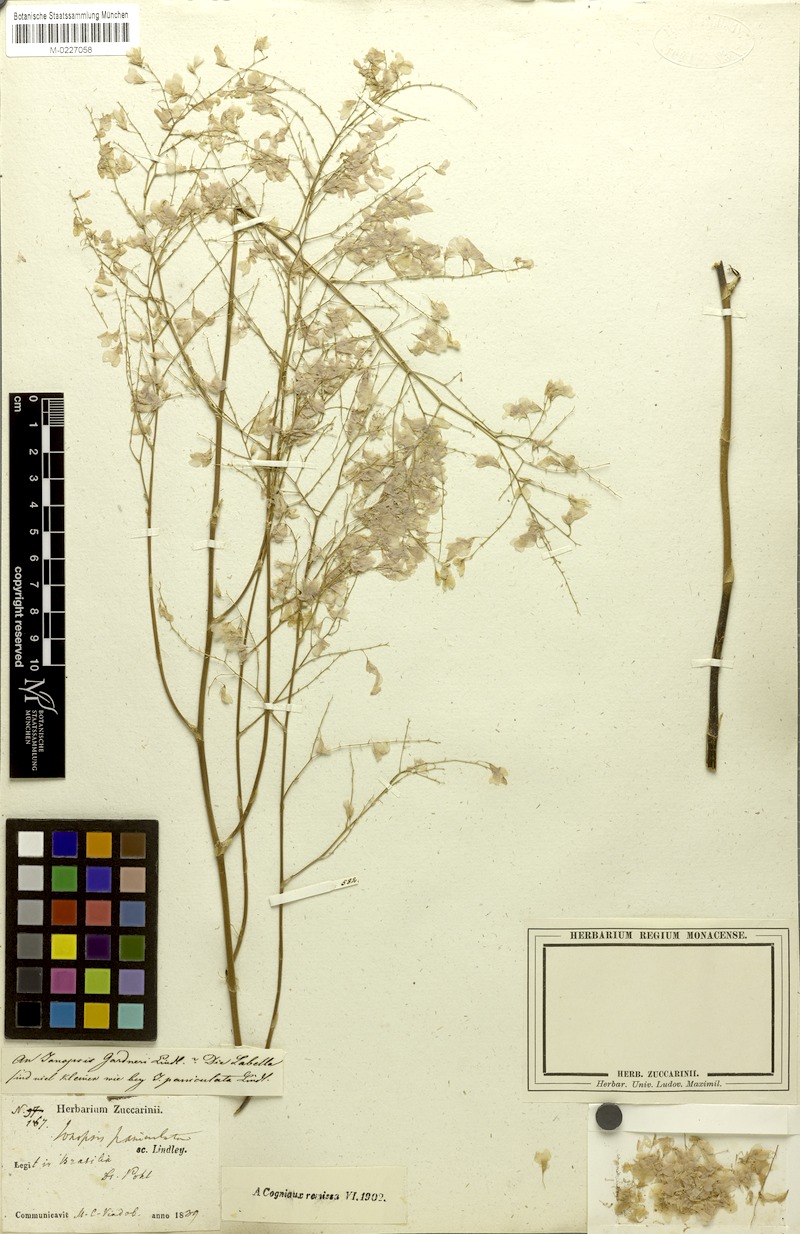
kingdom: Plantae
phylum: Tracheophyta
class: Liliopsida
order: Asparagales
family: Orchidaceae
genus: Ionopsis
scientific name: Ionopsis utricularioides
